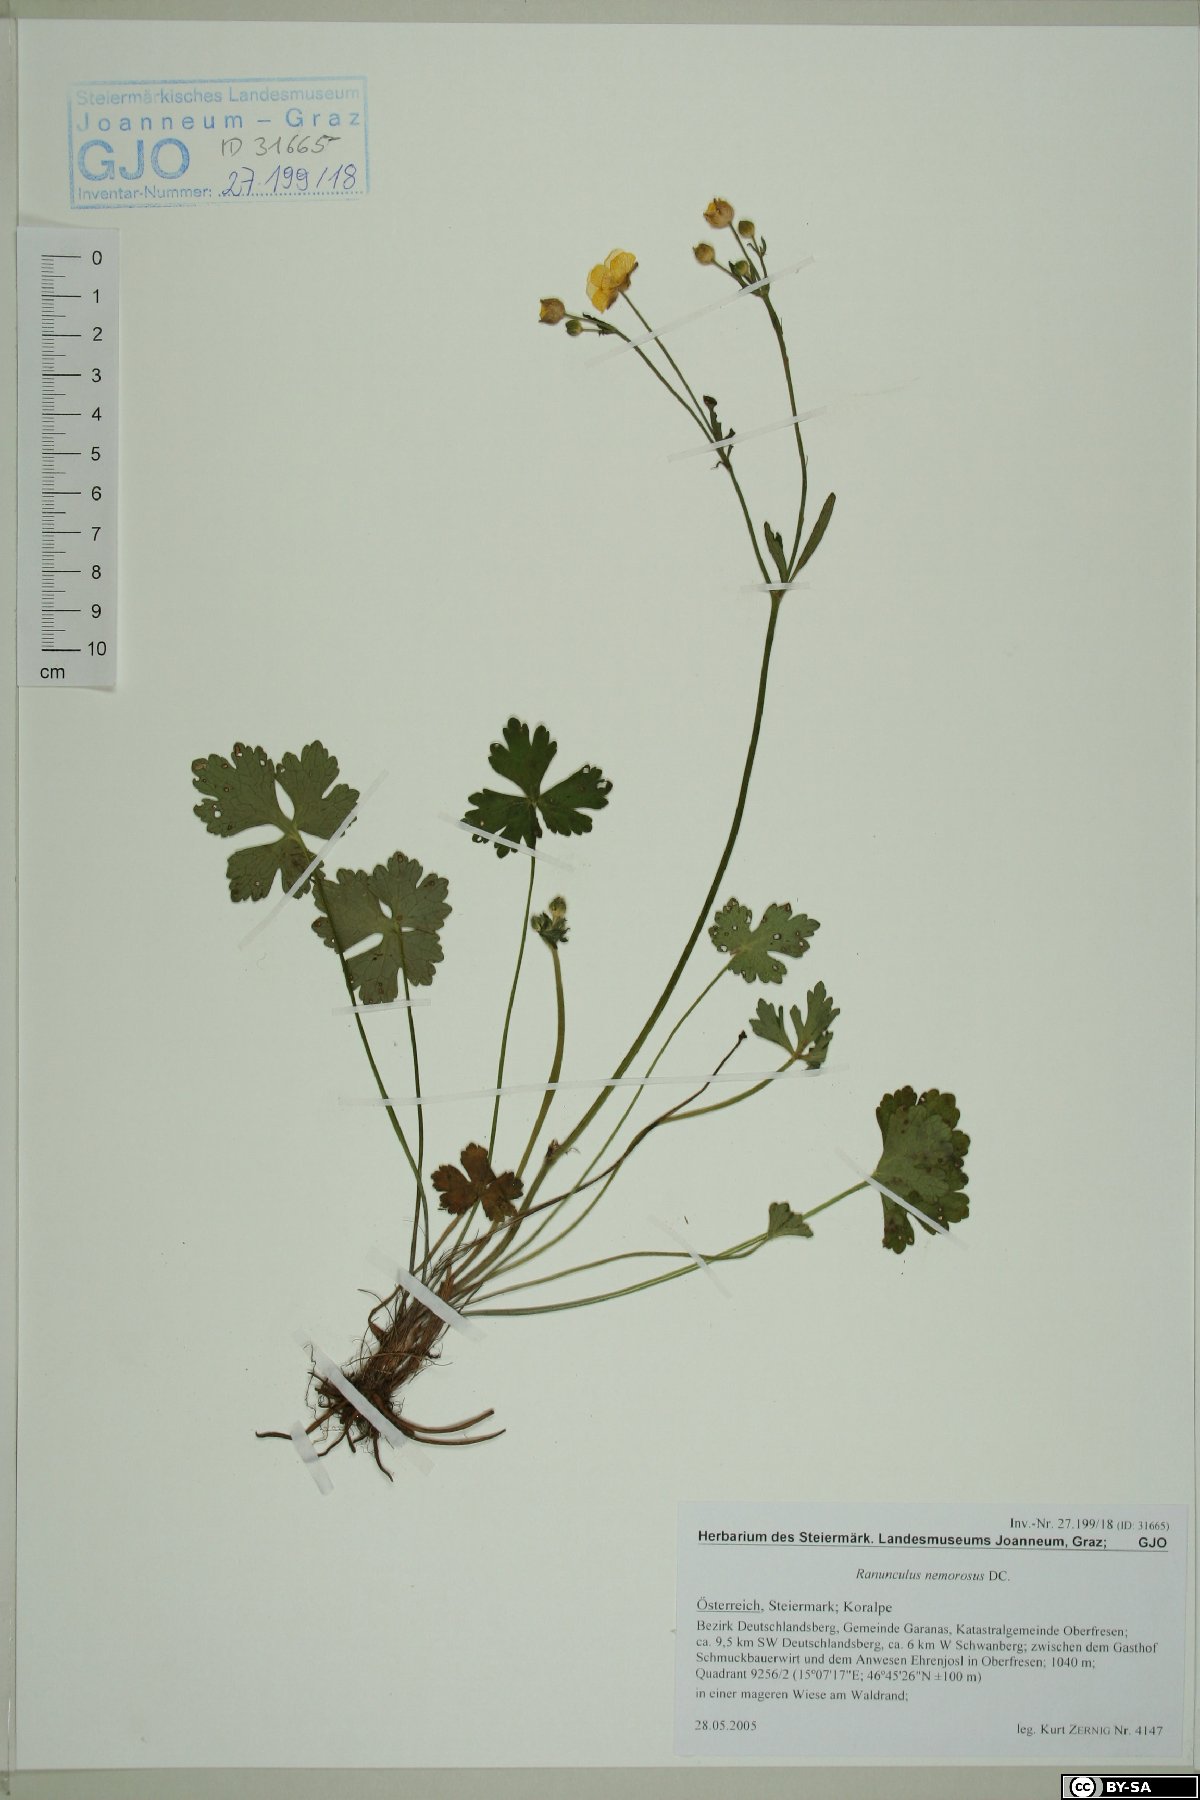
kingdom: Plantae
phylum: Tracheophyta
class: Magnoliopsida
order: Ranunculales
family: Ranunculaceae
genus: Ranunculus
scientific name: Ranunculus polyanthemos
